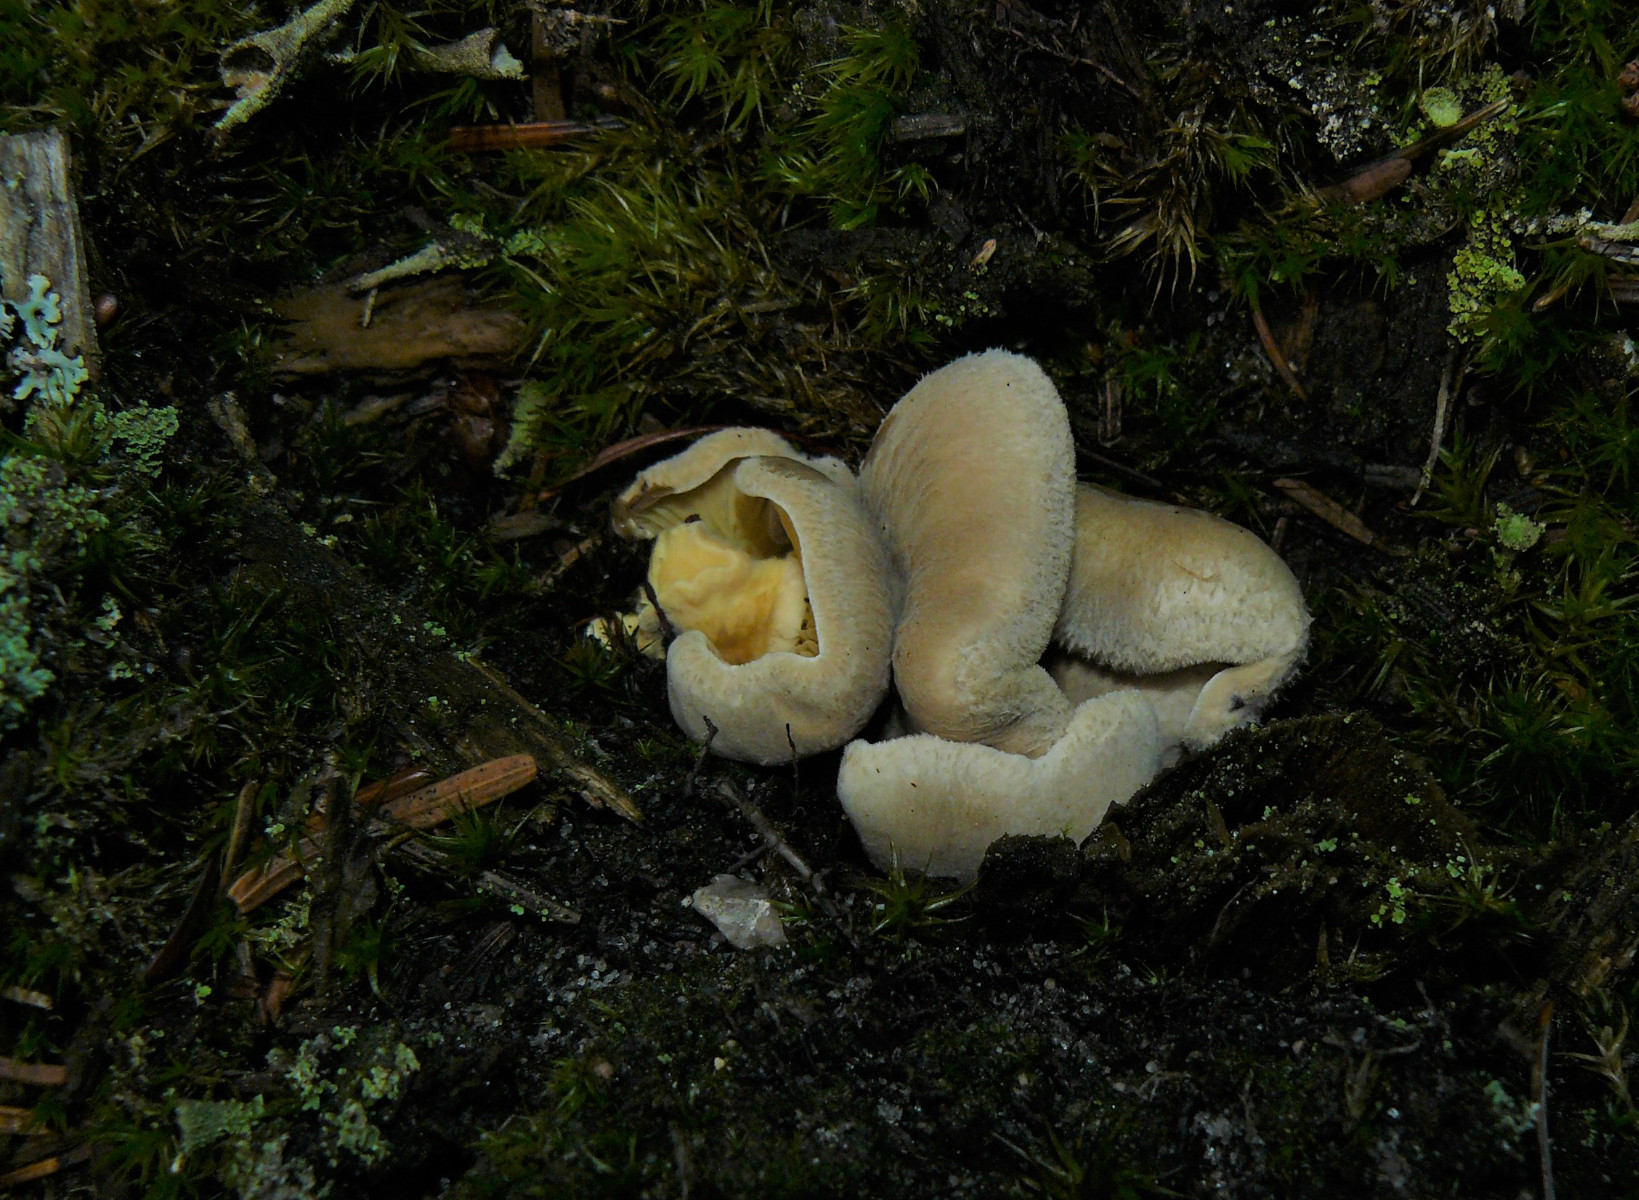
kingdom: Fungi
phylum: Basidiomycota
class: Agaricomycetes
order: Boletales
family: Tapinellaceae
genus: Tapinella
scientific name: Tapinella panuoides
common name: tømmer-viftesvamp
